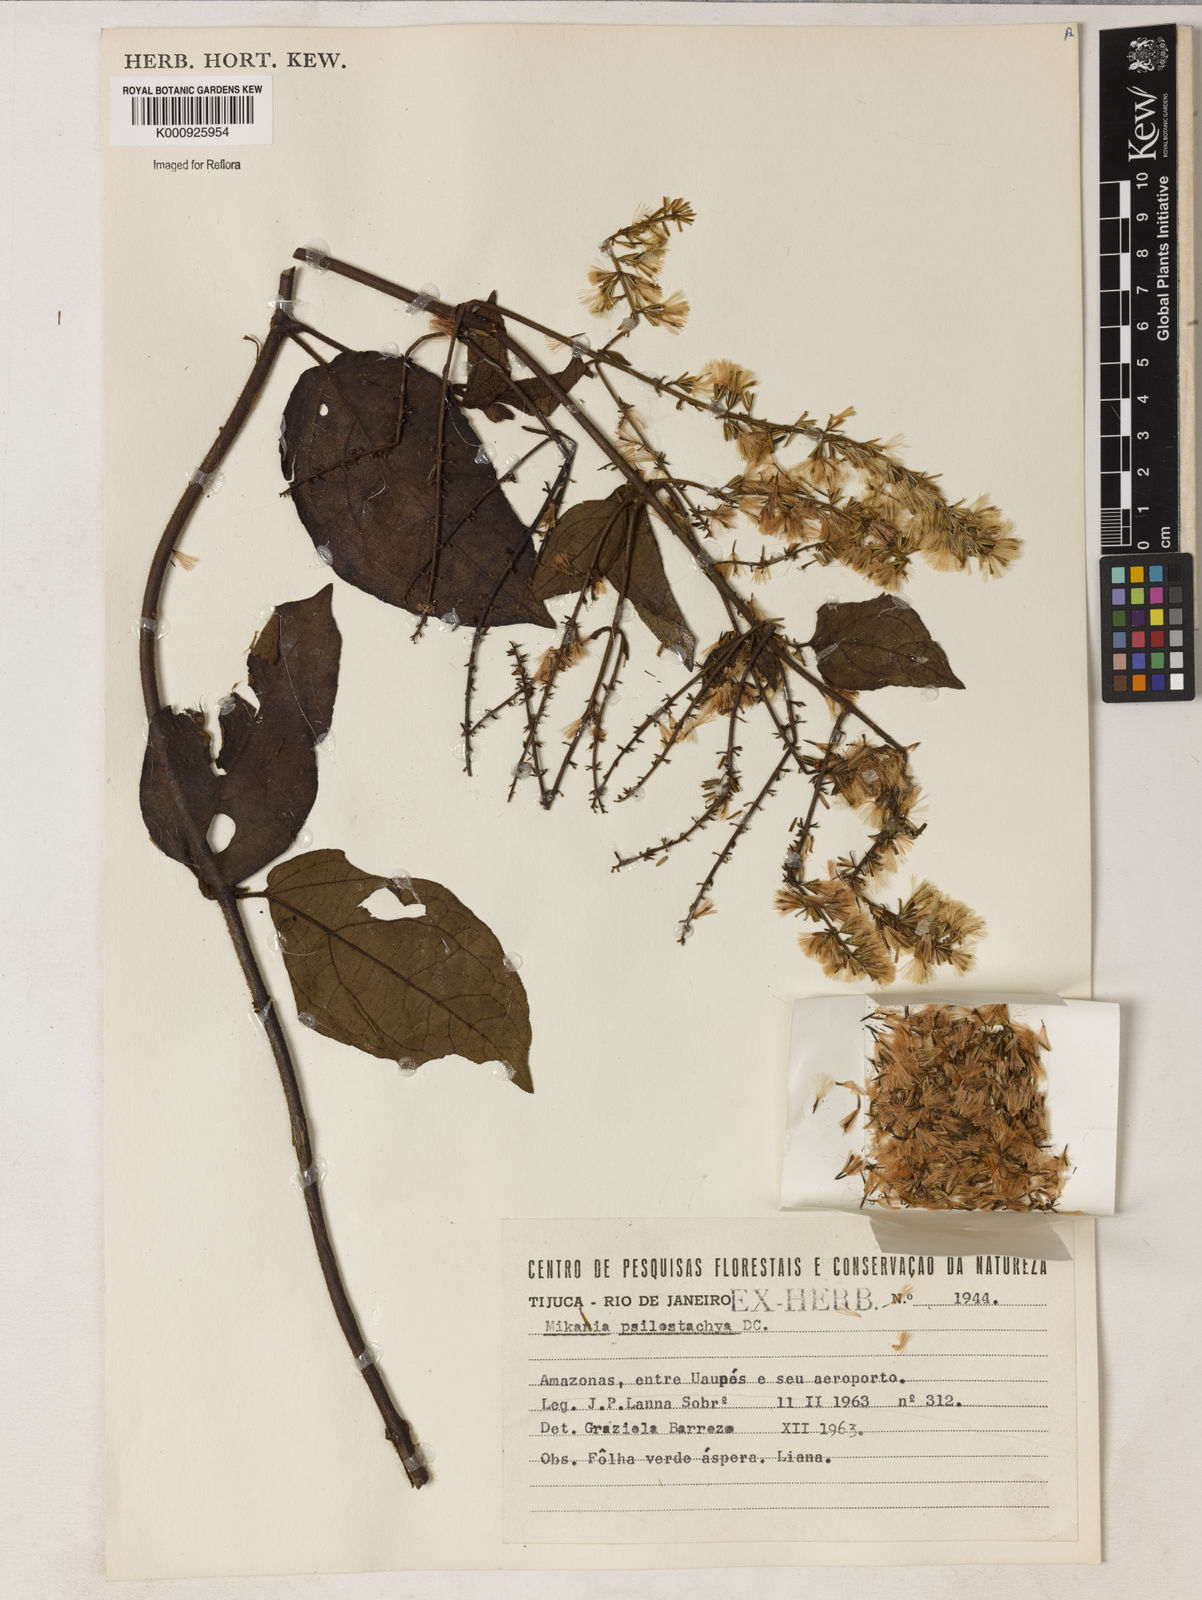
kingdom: Plantae
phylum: Tracheophyta
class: Magnoliopsida
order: Asterales
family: Asteraceae
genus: Mikania
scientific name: Mikania psilostachya
